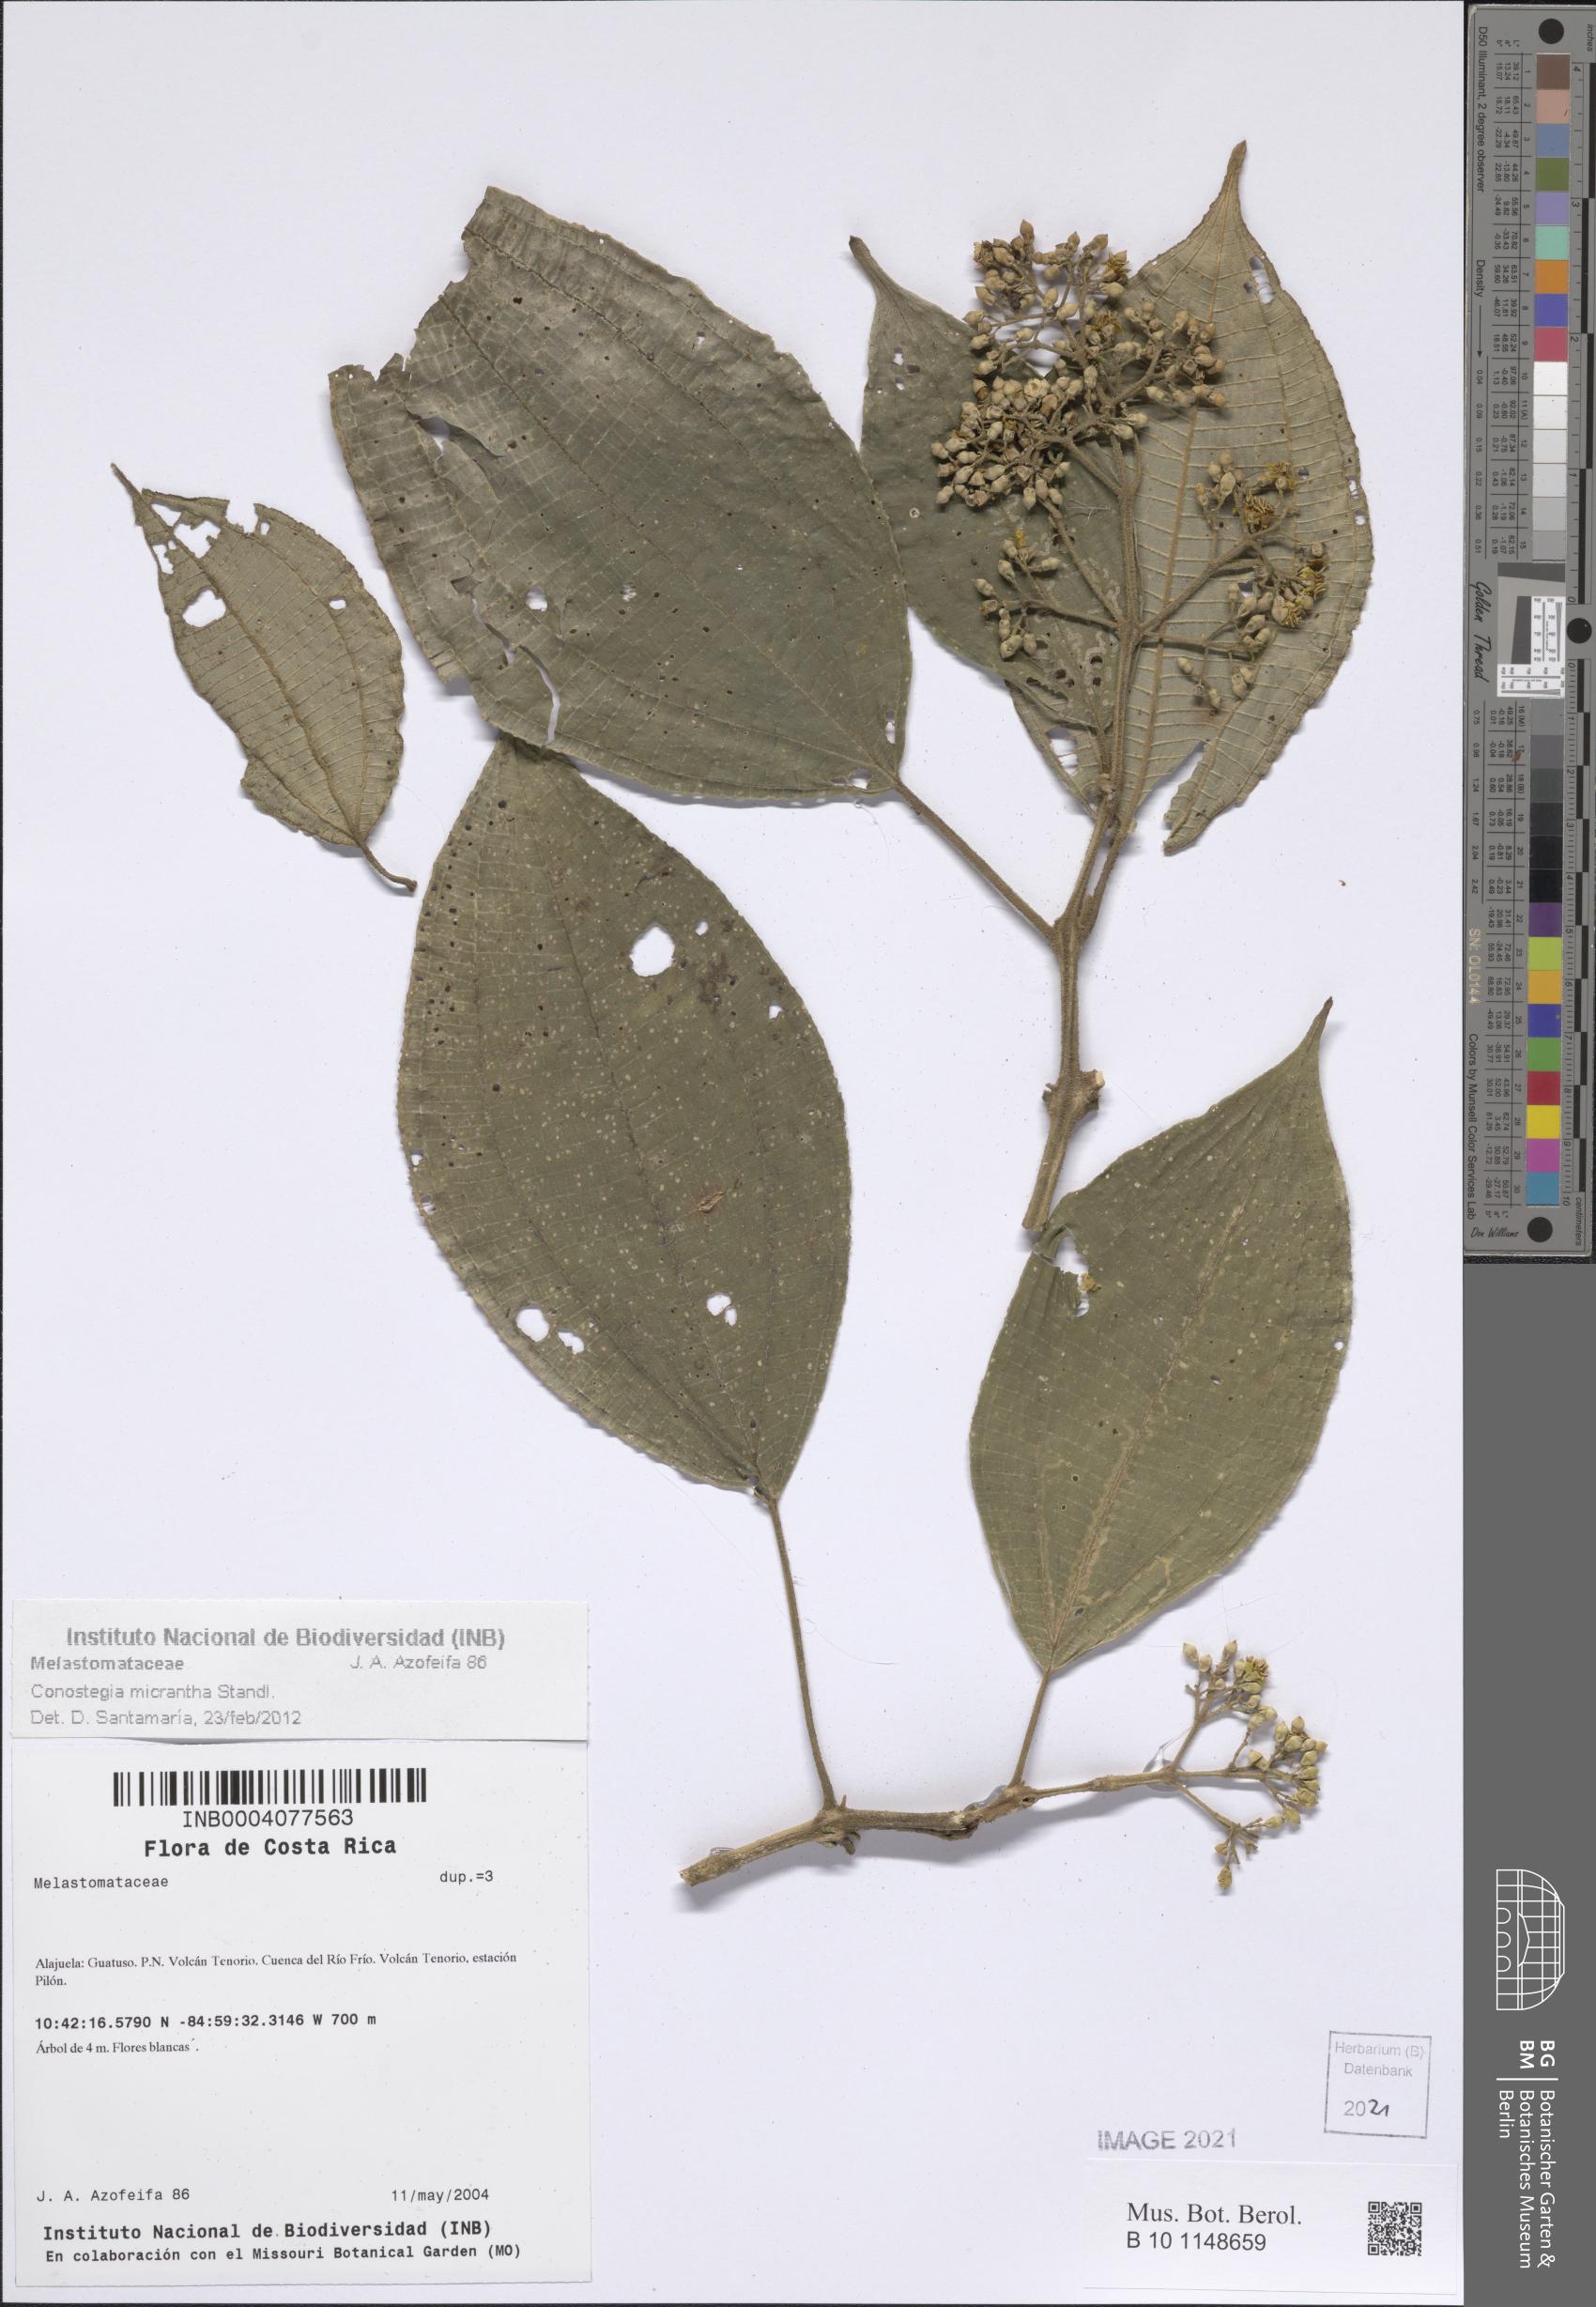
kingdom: Plantae
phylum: Tracheophyta
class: Magnoliopsida
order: Myrtales
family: Melastomataceae
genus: Miconia
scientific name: Miconia conomicrantha
